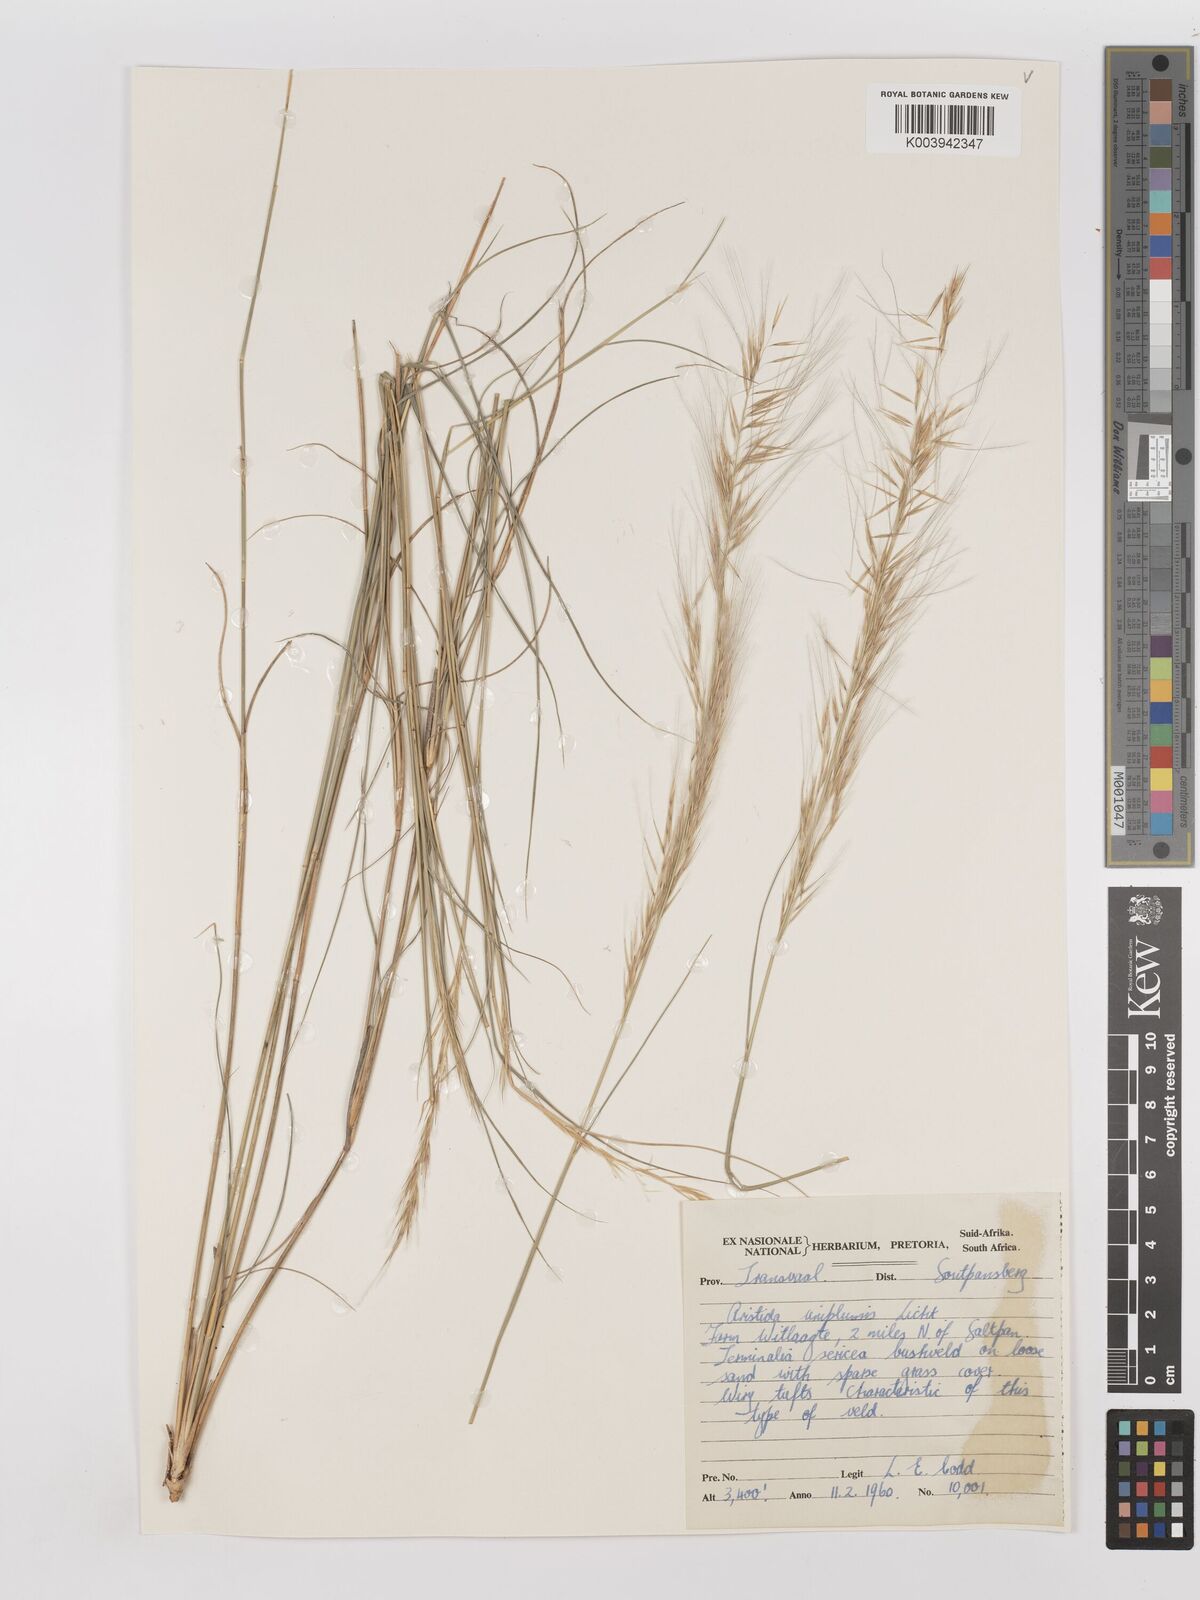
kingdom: Plantae
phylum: Tracheophyta
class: Liliopsida
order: Poales
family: Poaceae
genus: Stipagrostis
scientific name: Stipagrostis uniplumis
